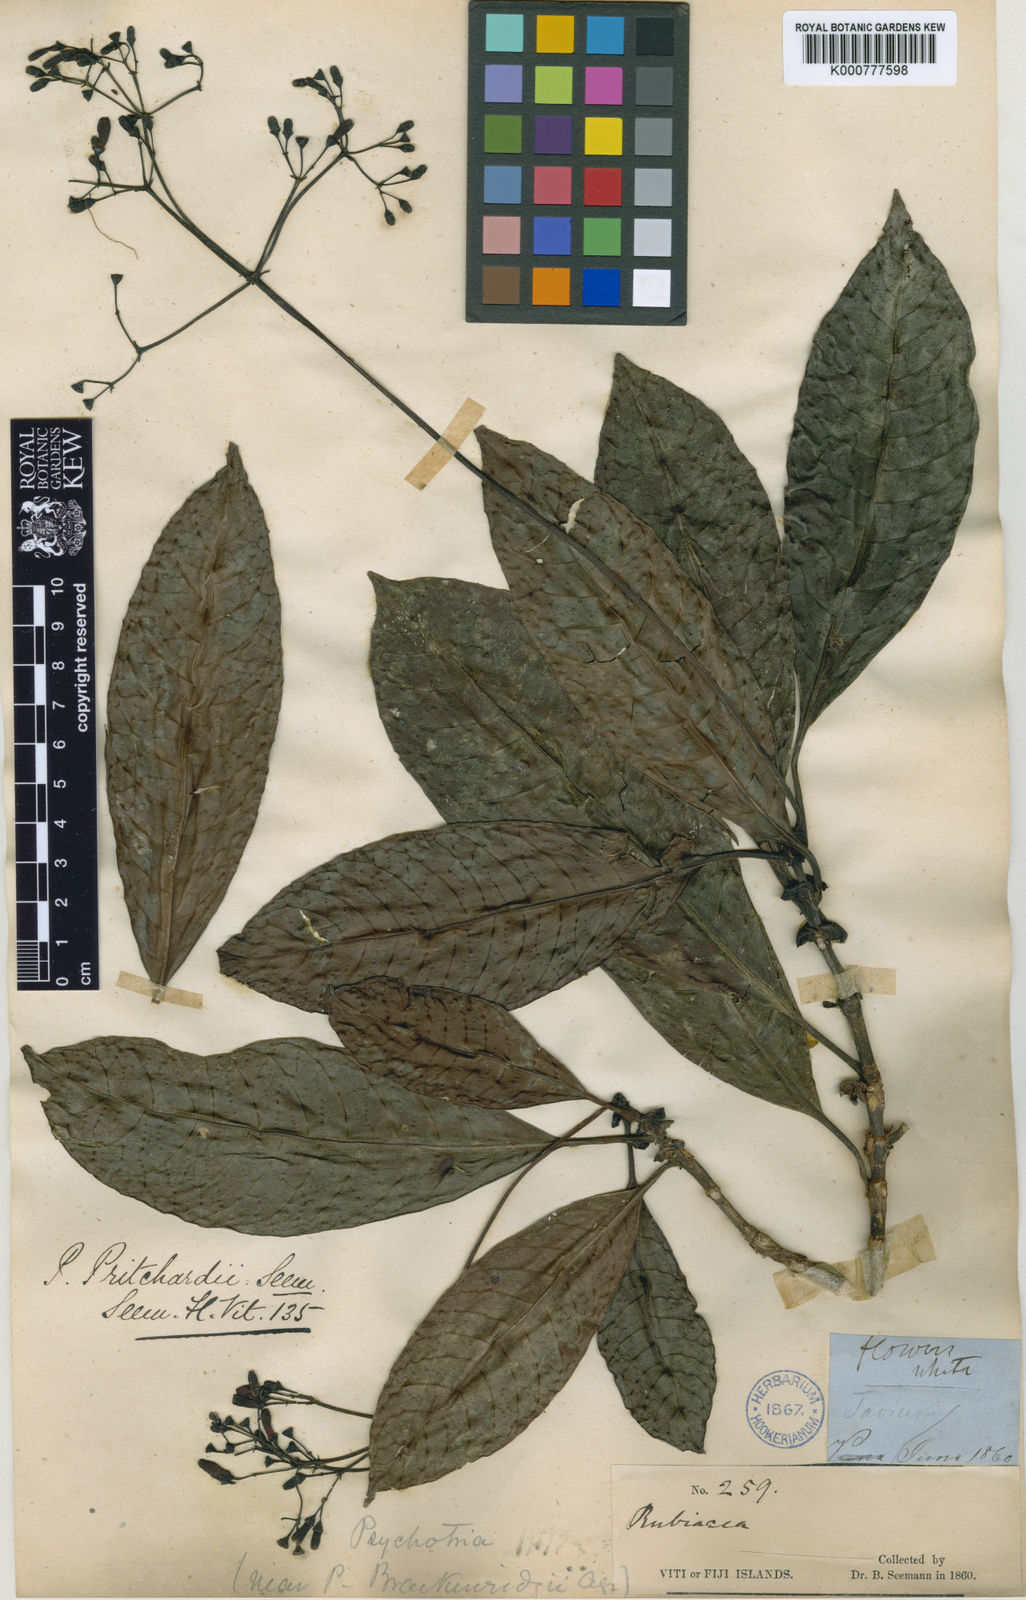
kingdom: Plantae
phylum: Tracheophyta
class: Magnoliopsida
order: Gentianales
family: Rubiaceae
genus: Psychotria
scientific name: Psychotria pritchardii
